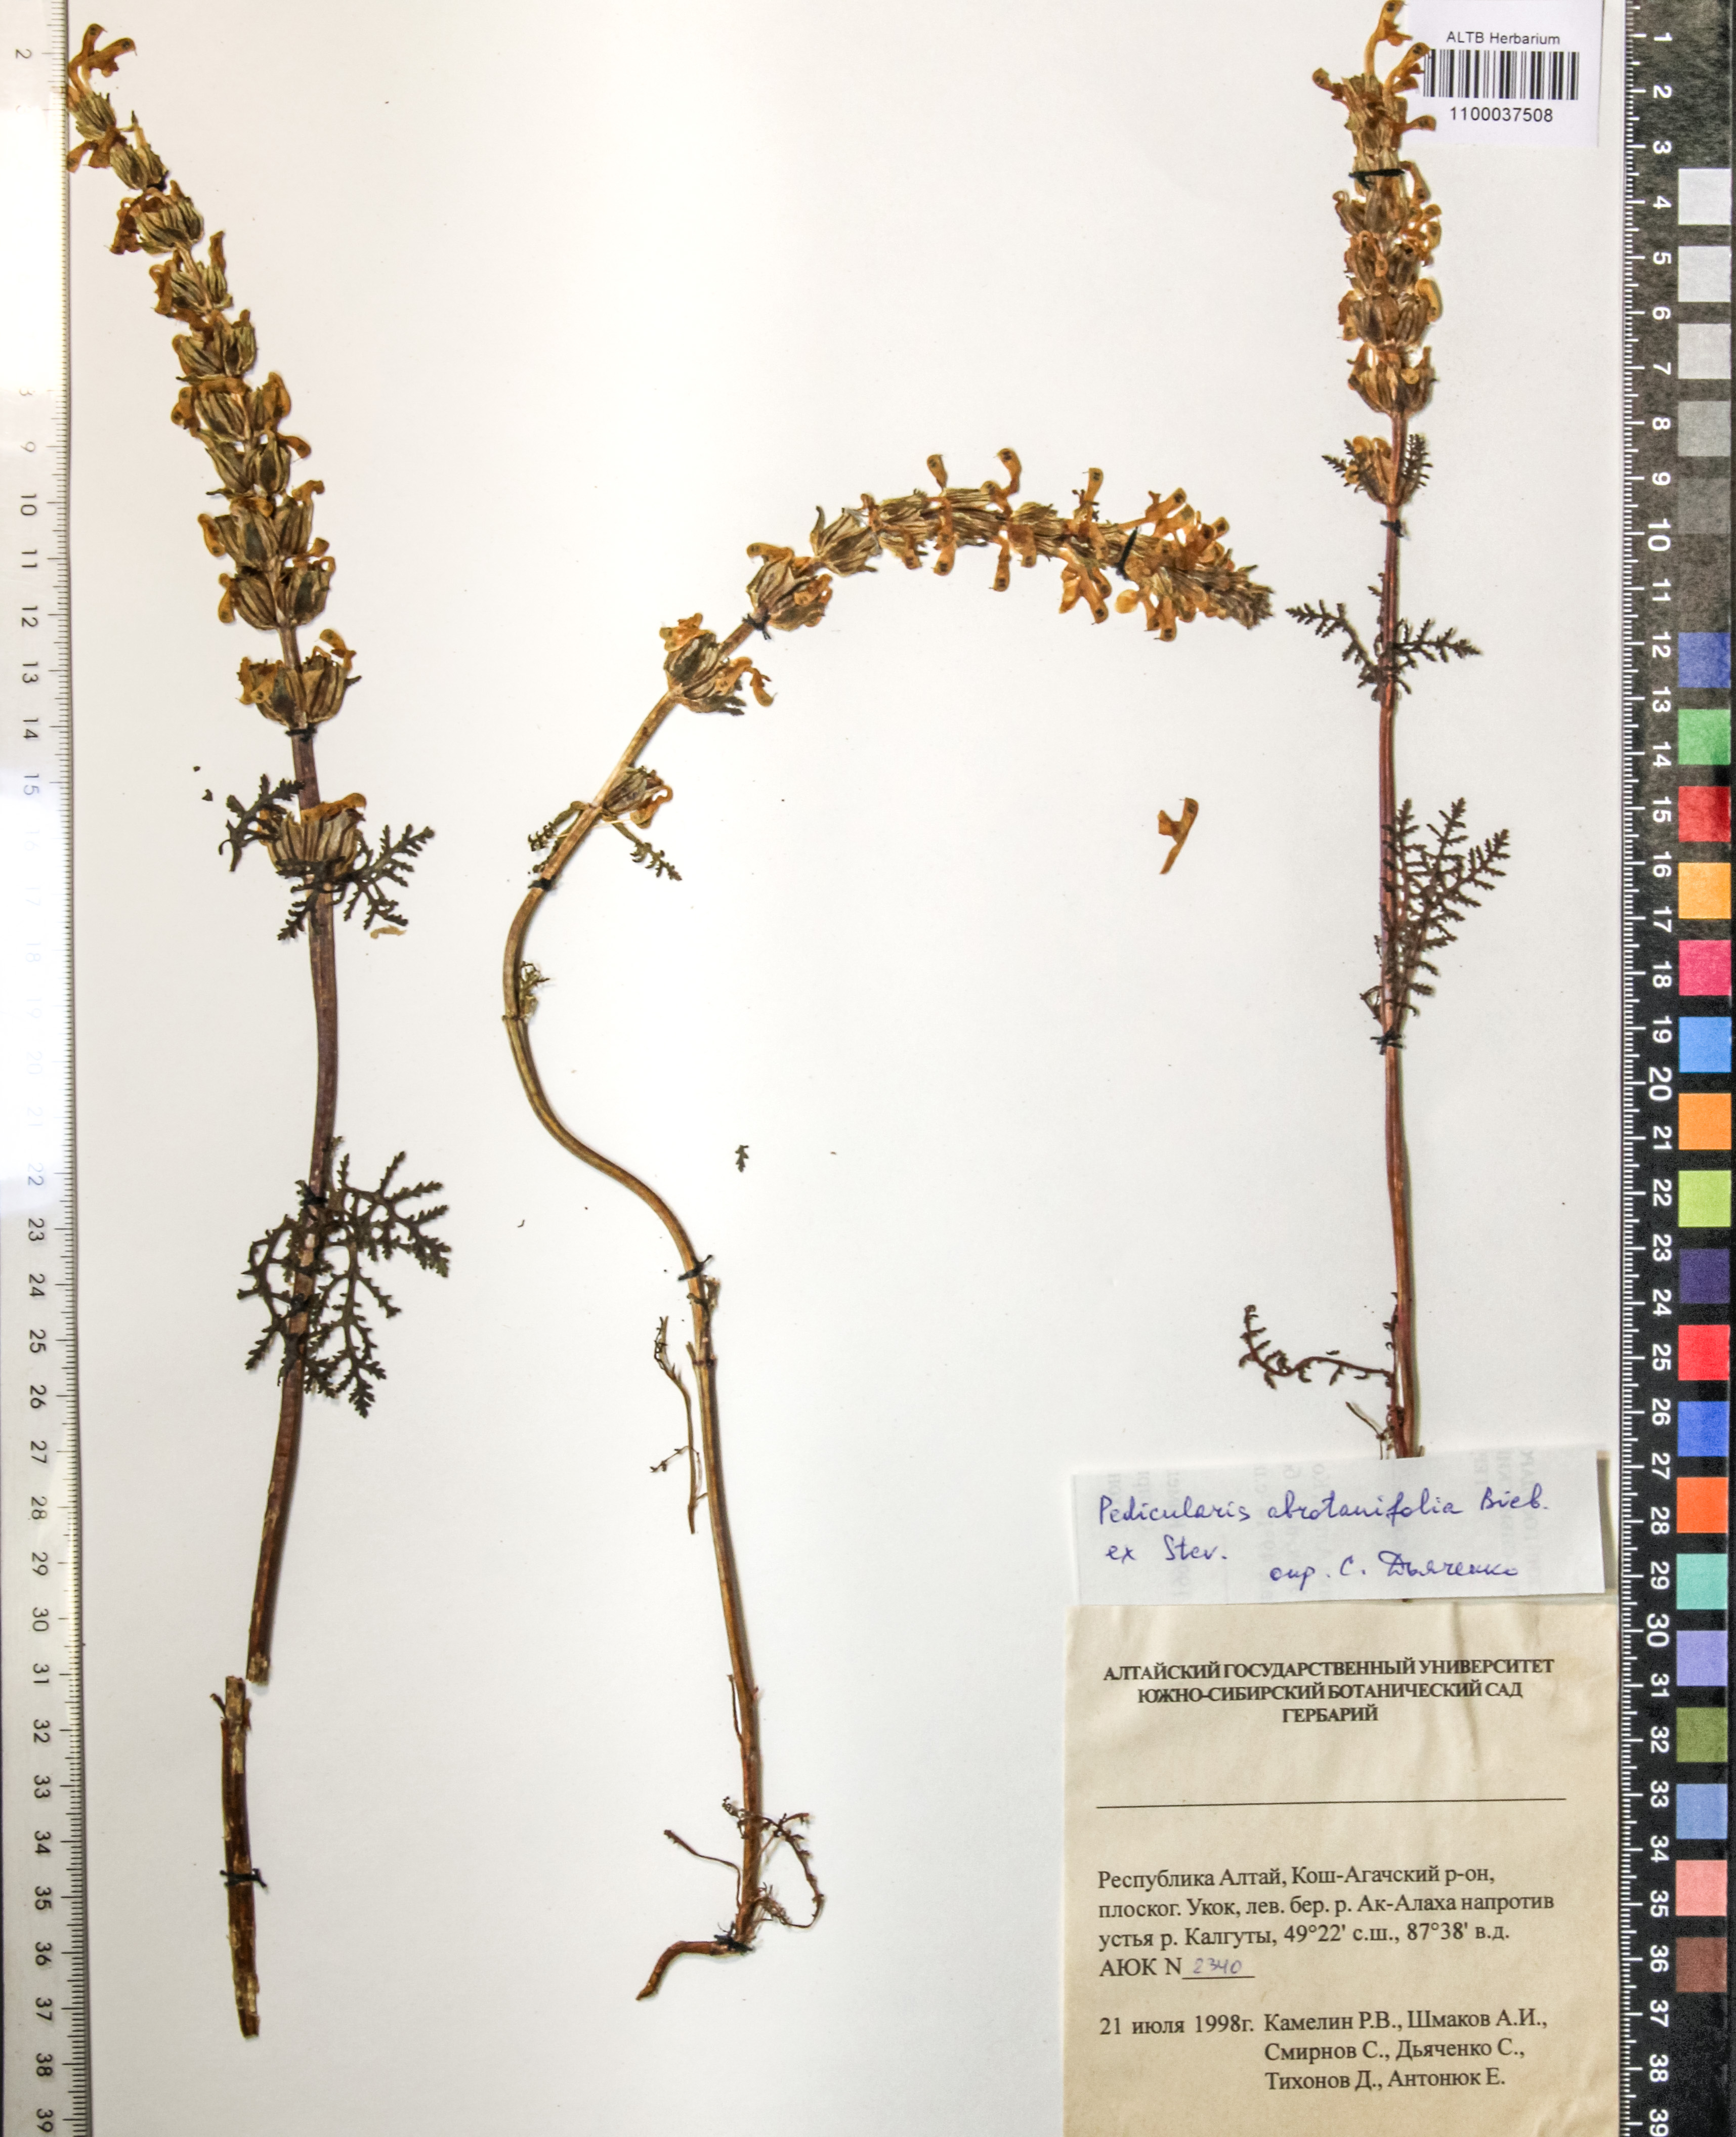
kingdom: Plantae
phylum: Tracheophyta
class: Magnoliopsida
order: Lamiales
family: Orobanchaceae
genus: Pedicularis
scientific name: Pedicularis abrotanifolia
